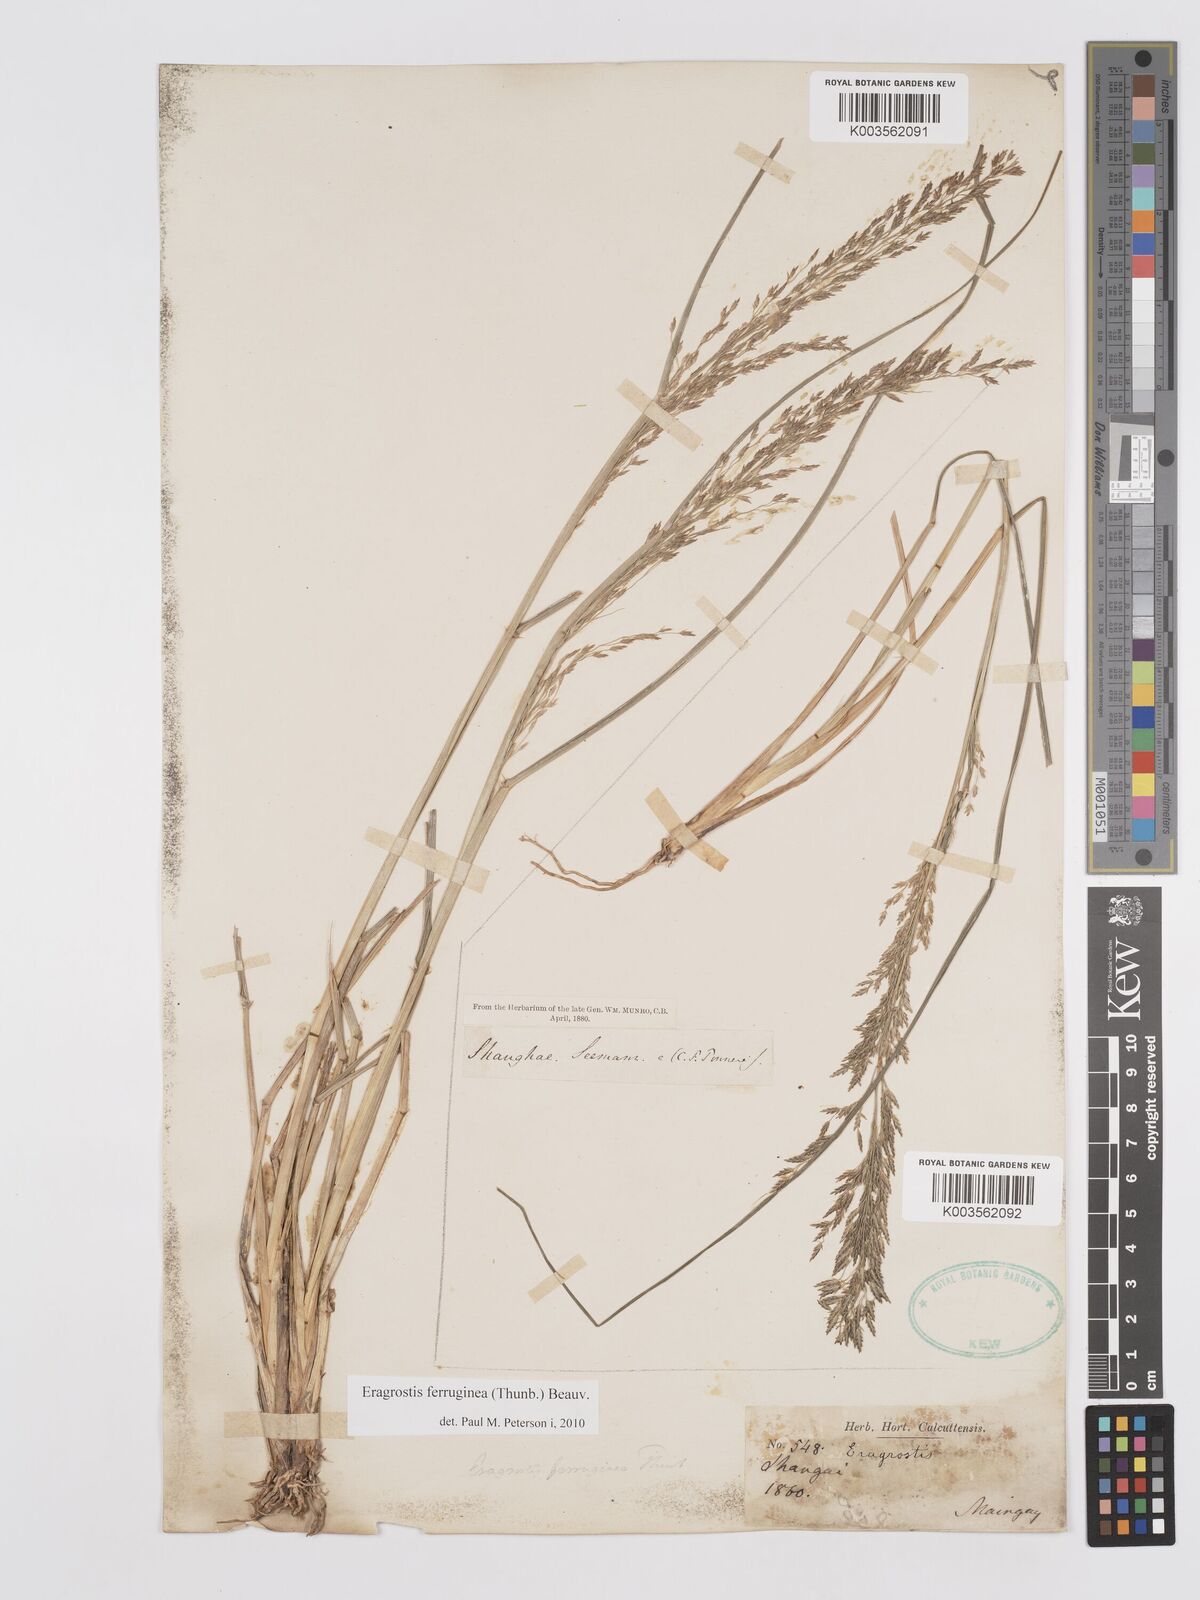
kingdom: Plantae
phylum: Tracheophyta
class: Liliopsida
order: Poales
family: Poaceae
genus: Eragrostis
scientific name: Eragrostis ferruginea
